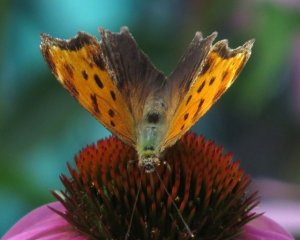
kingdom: Animalia
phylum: Arthropoda
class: Insecta
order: Lepidoptera
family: Nymphalidae
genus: Polygonia
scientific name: Polygonia comma
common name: Eastern Comma
